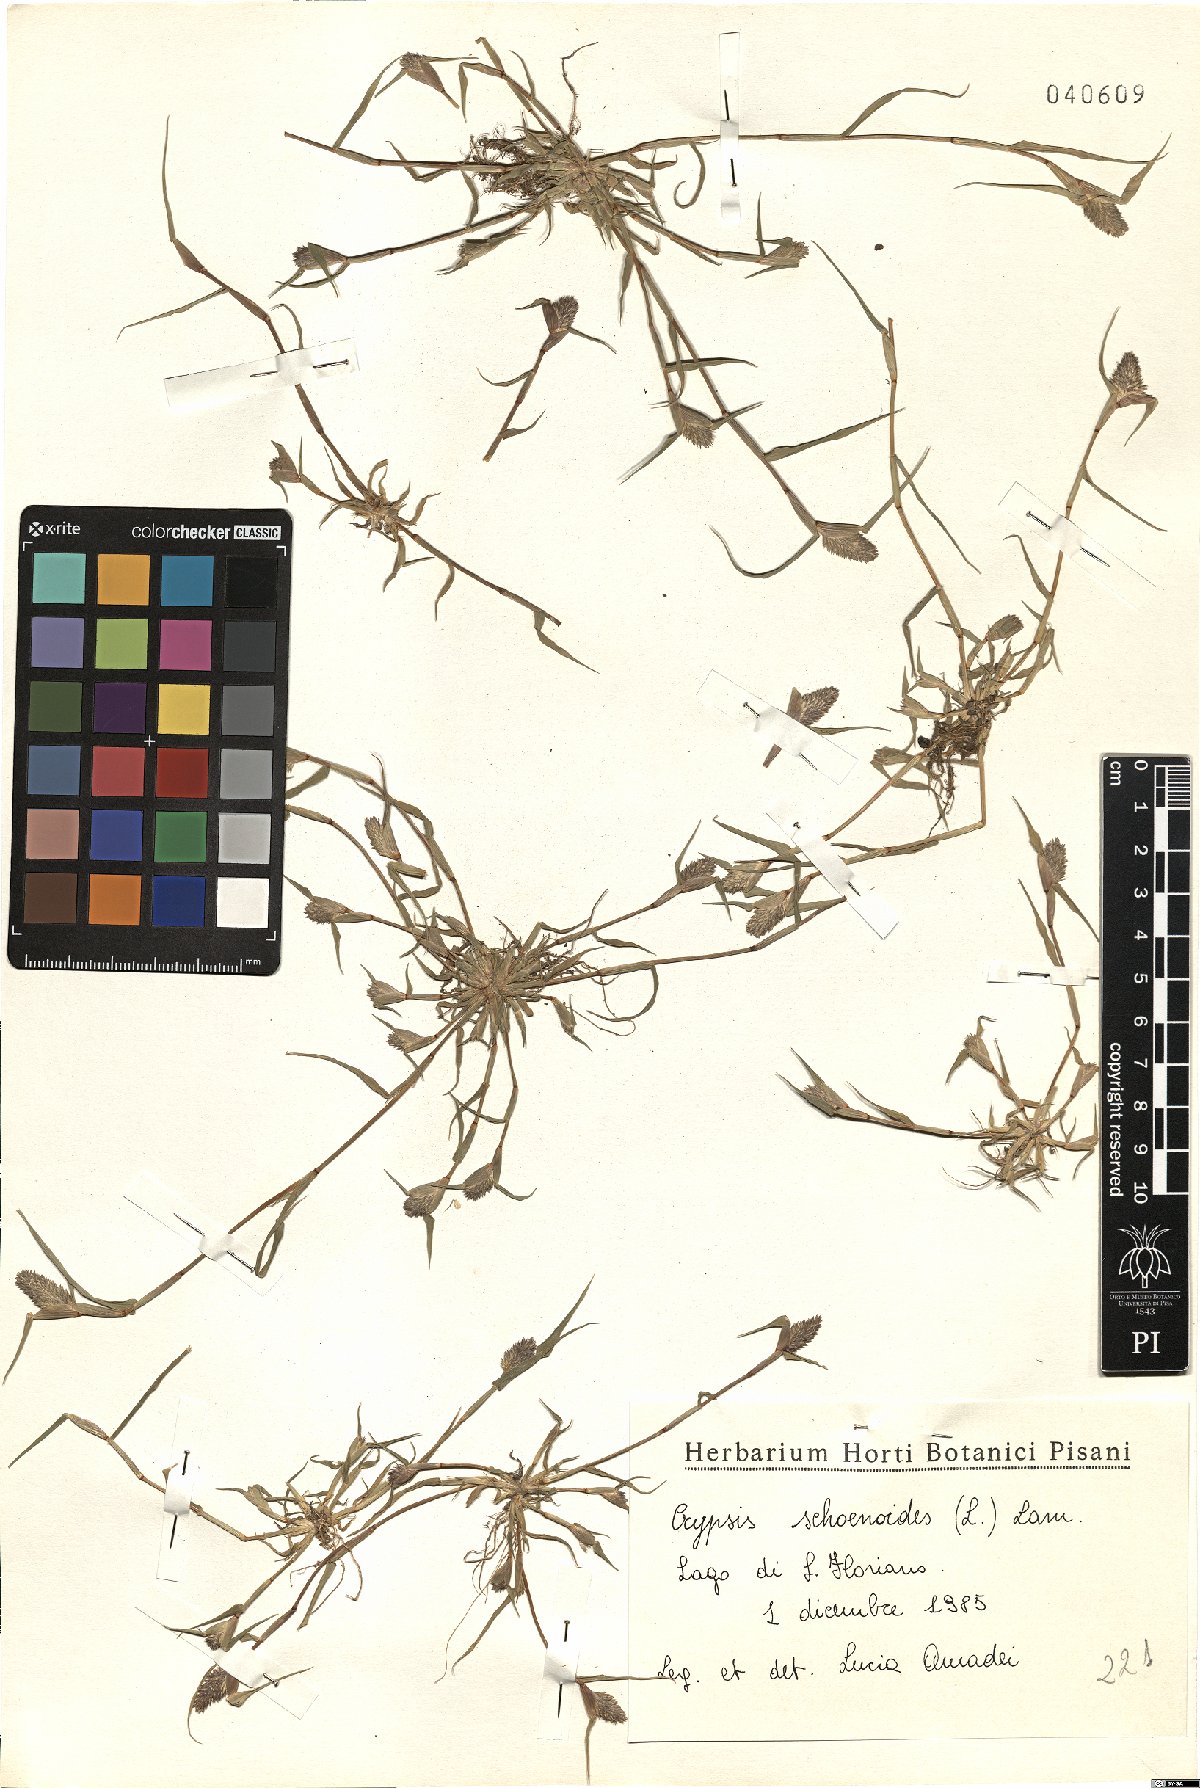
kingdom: Plantae
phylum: Tracheophyta
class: Liliopsida
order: Poales
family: Poaceae
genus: Sporobolus
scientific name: Sporobolus schoenoides
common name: Rush-like timothy
